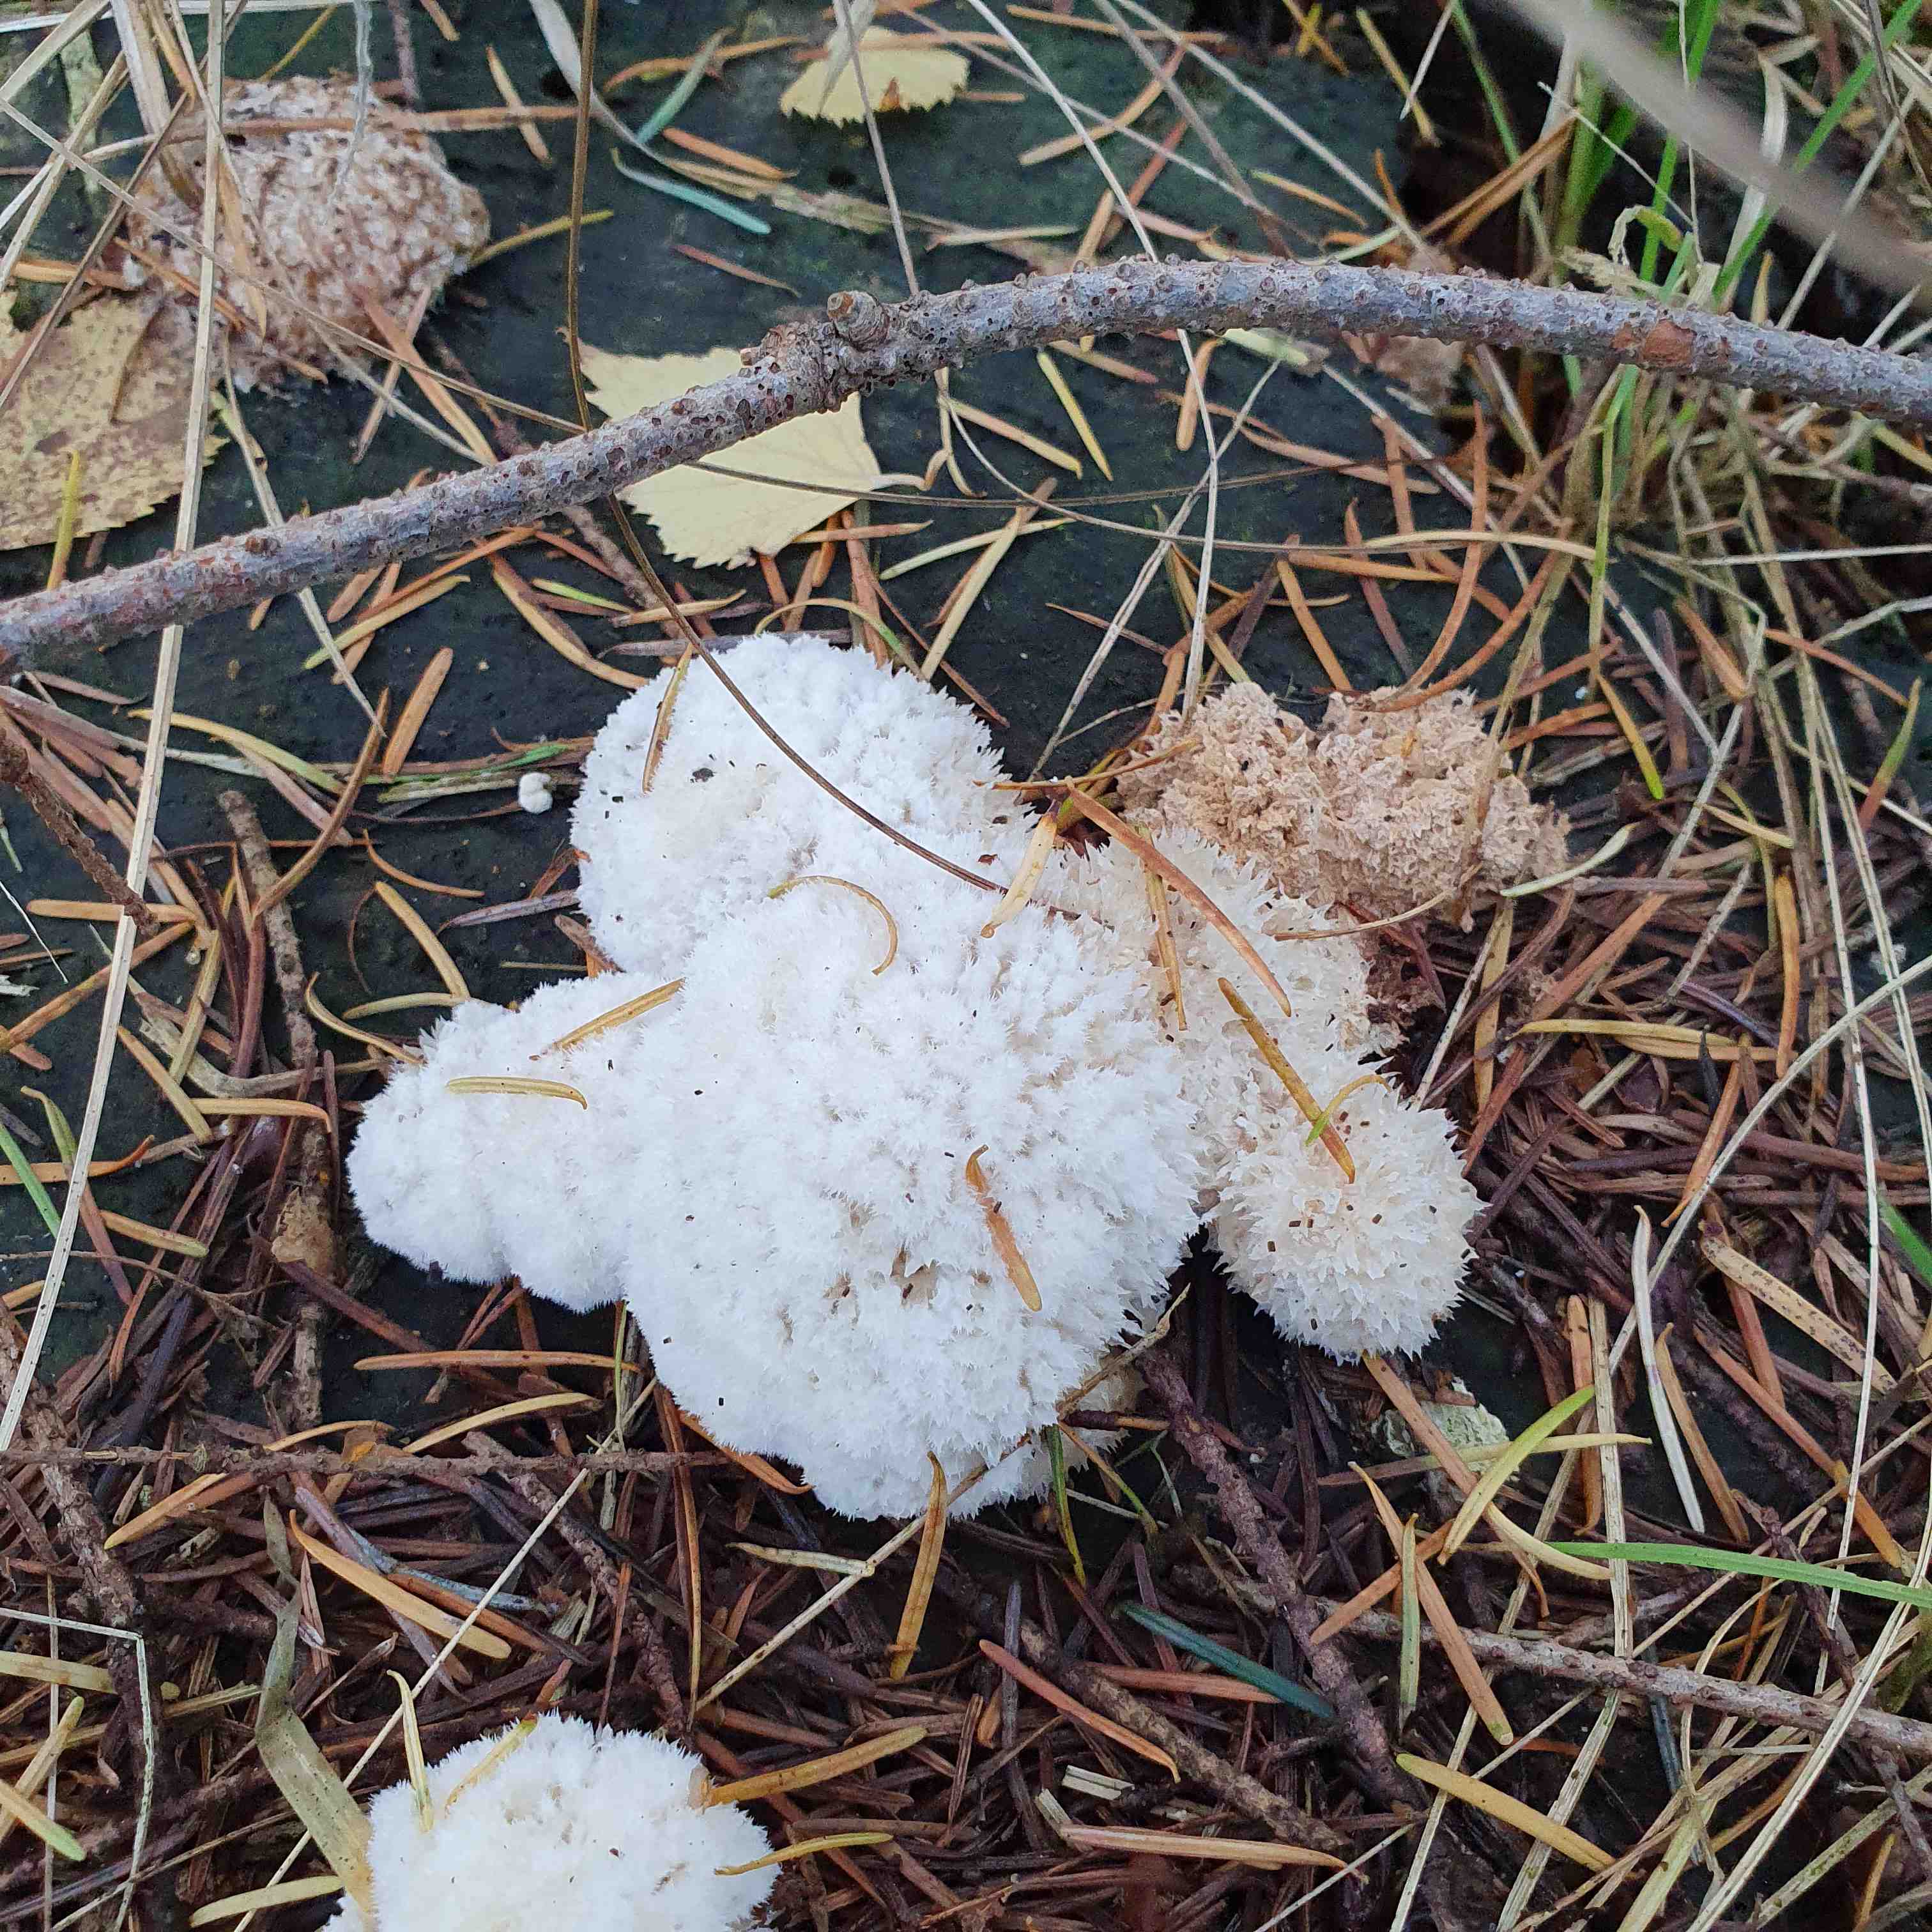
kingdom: Fungi
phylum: Basidiomycota
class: Agaricomycetes
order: Polyporales
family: Dacryobolaceae
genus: Postia
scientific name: Postia ptychogaster
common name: støvende kødporesvamp
